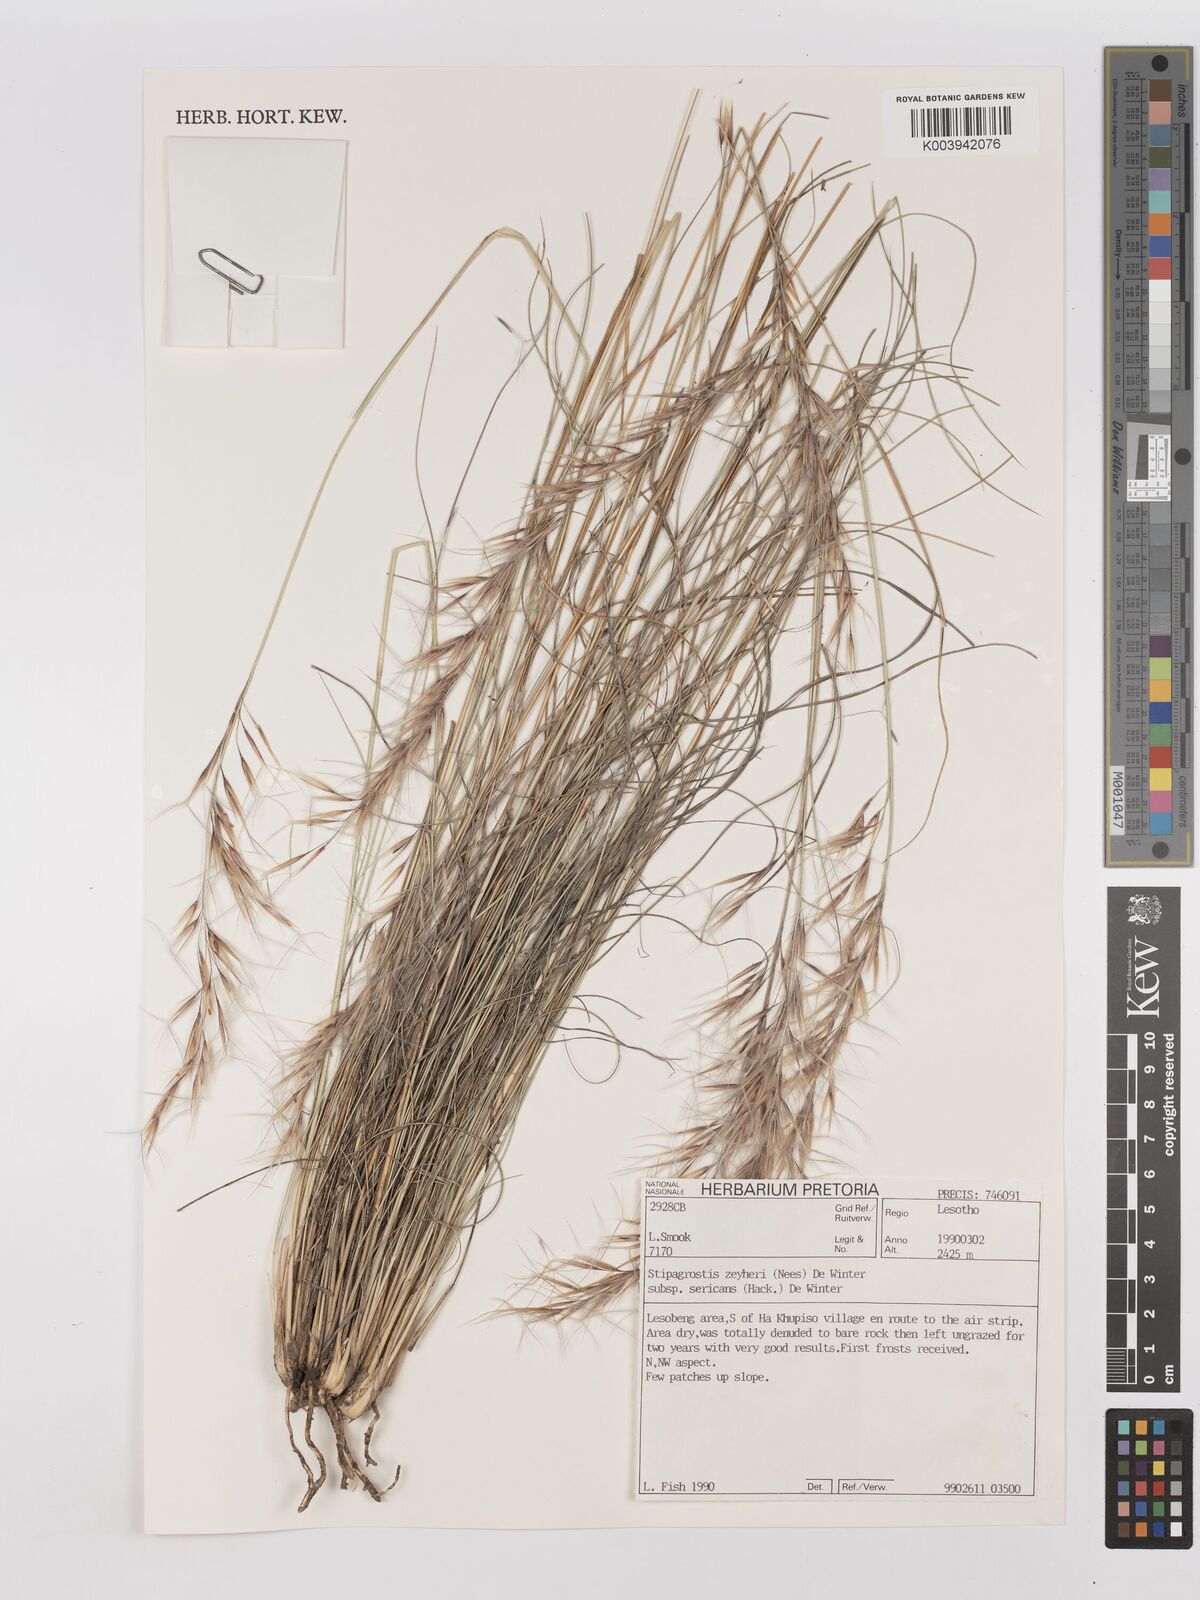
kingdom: Plantae
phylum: Tracheophyta
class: Liliopsida
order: Poales
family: Poaceae
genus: Stipagrostis
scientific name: Stipagrostis zeyheri
